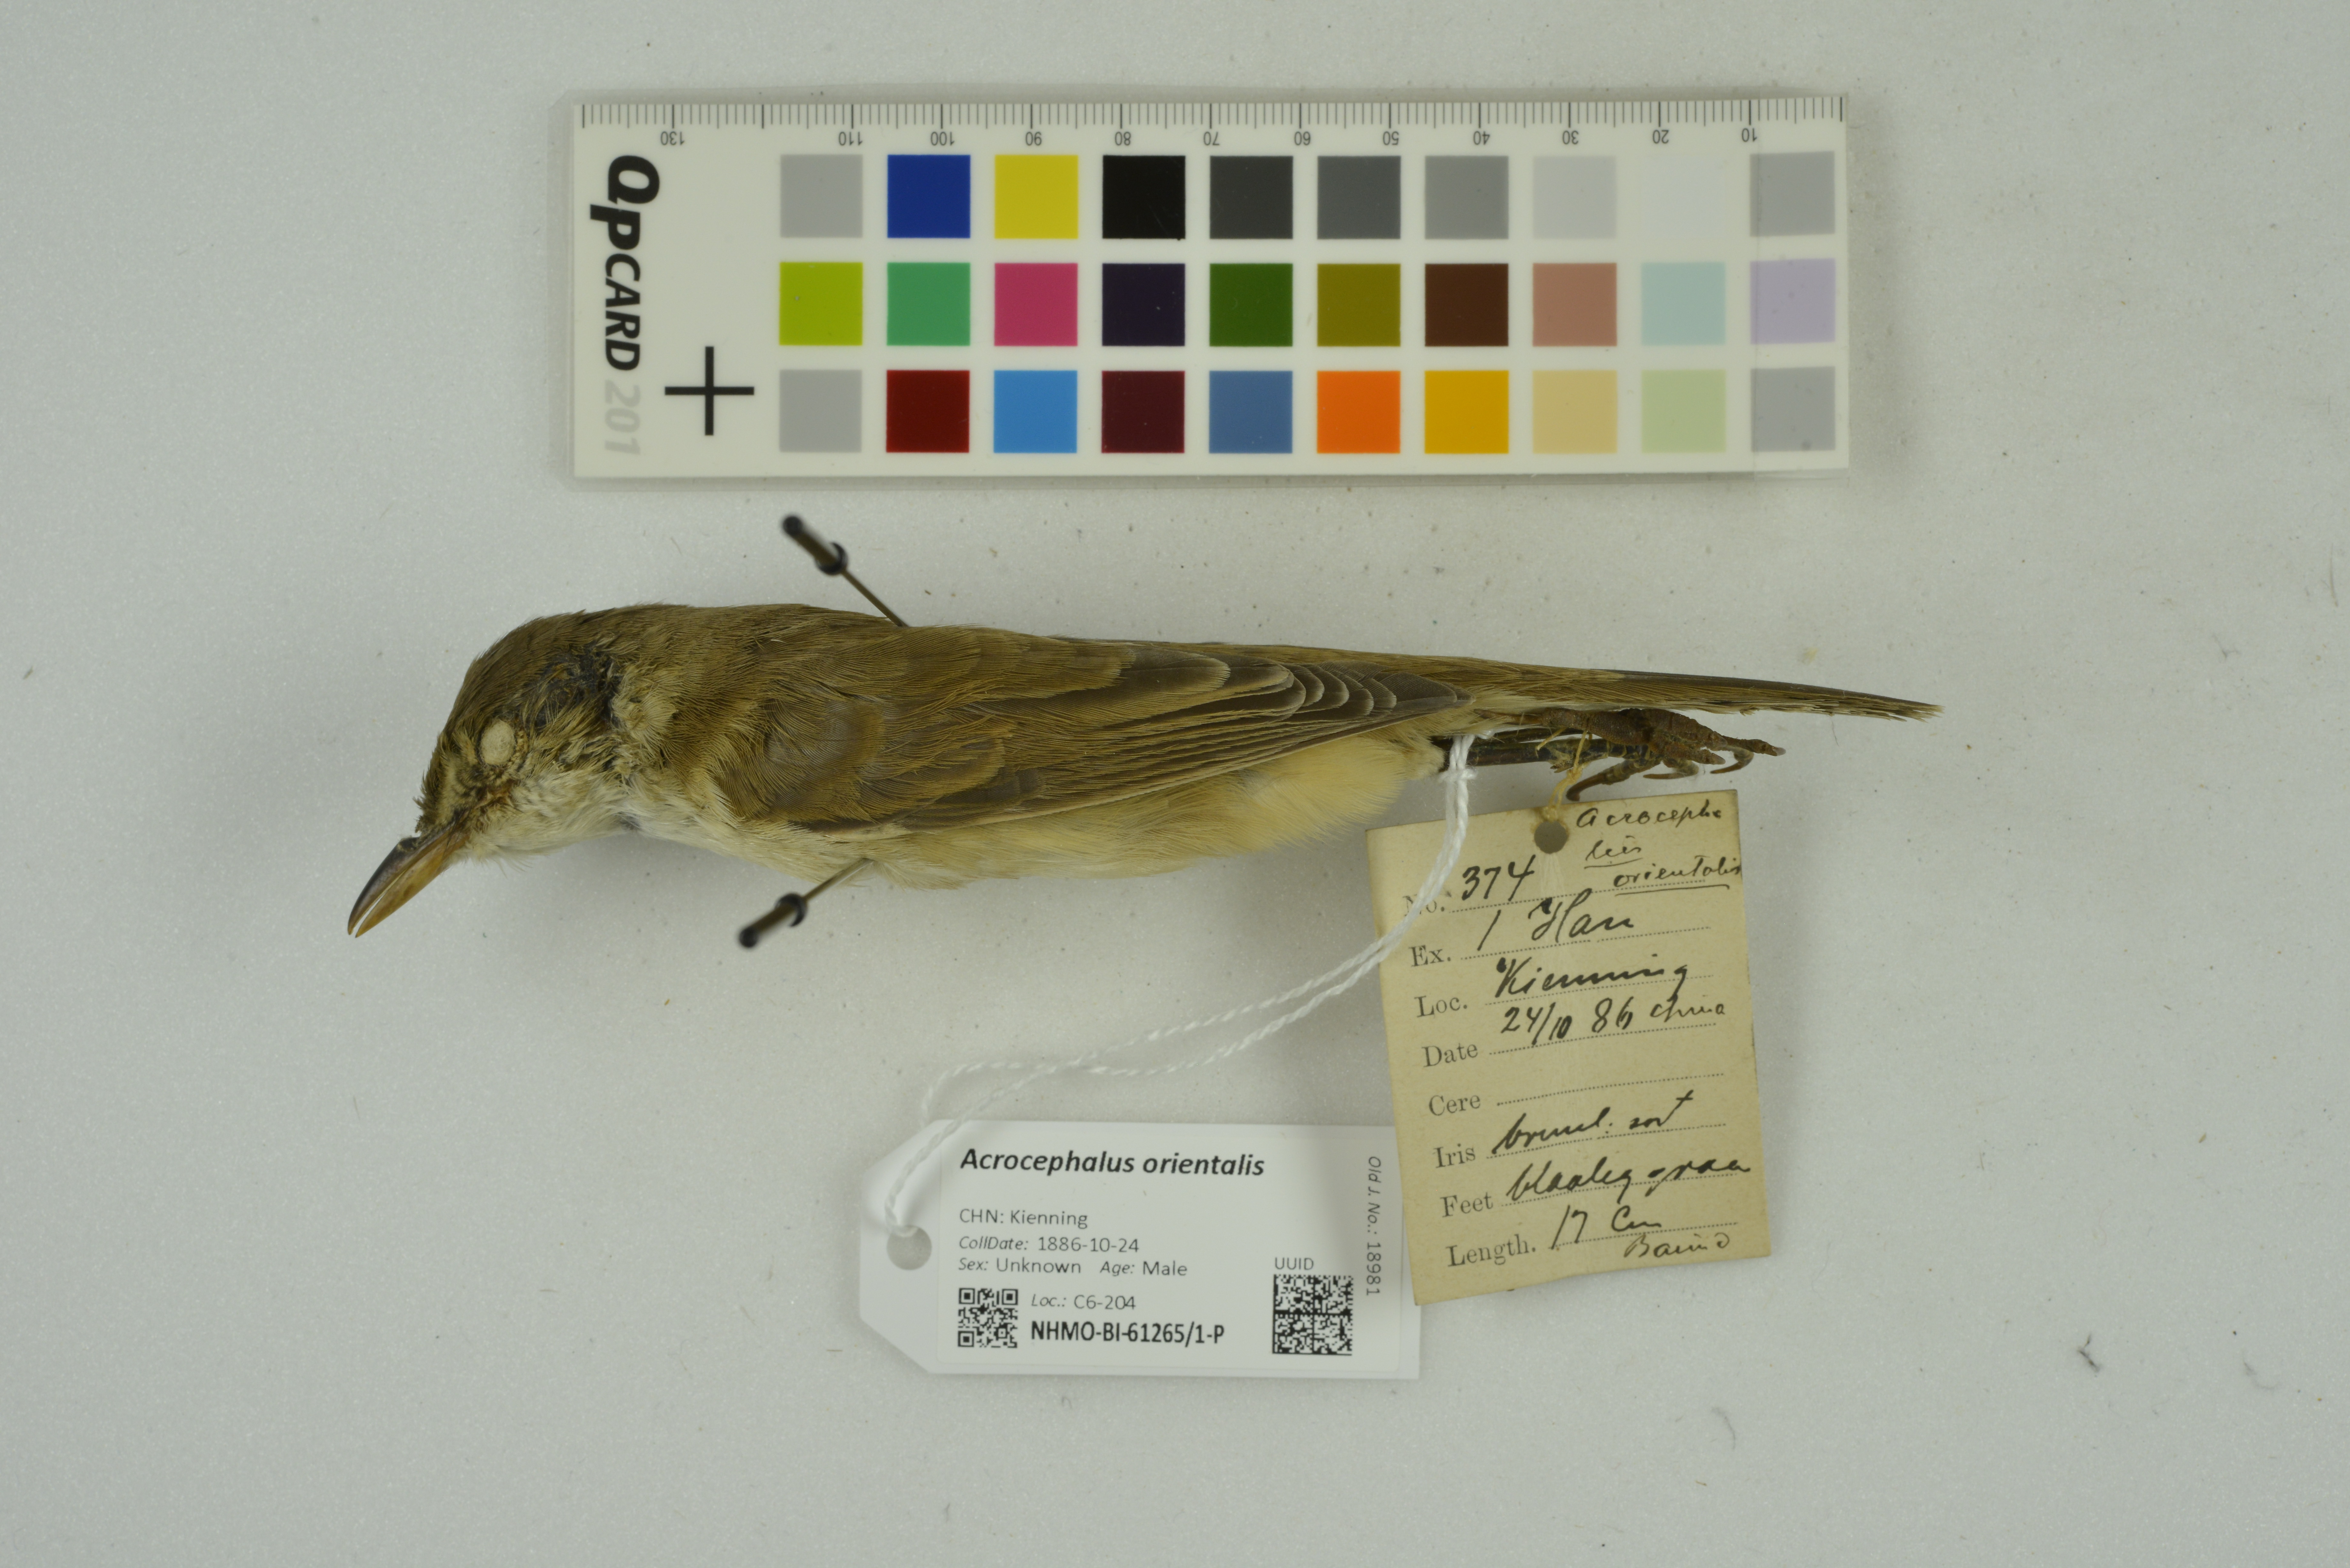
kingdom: Animalia
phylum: Chordata
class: Aves
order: Passeriformes
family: Acrocephalidae
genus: Acrocephalus
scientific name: Acrocephalus orientalis
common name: Oriental reed warbler
